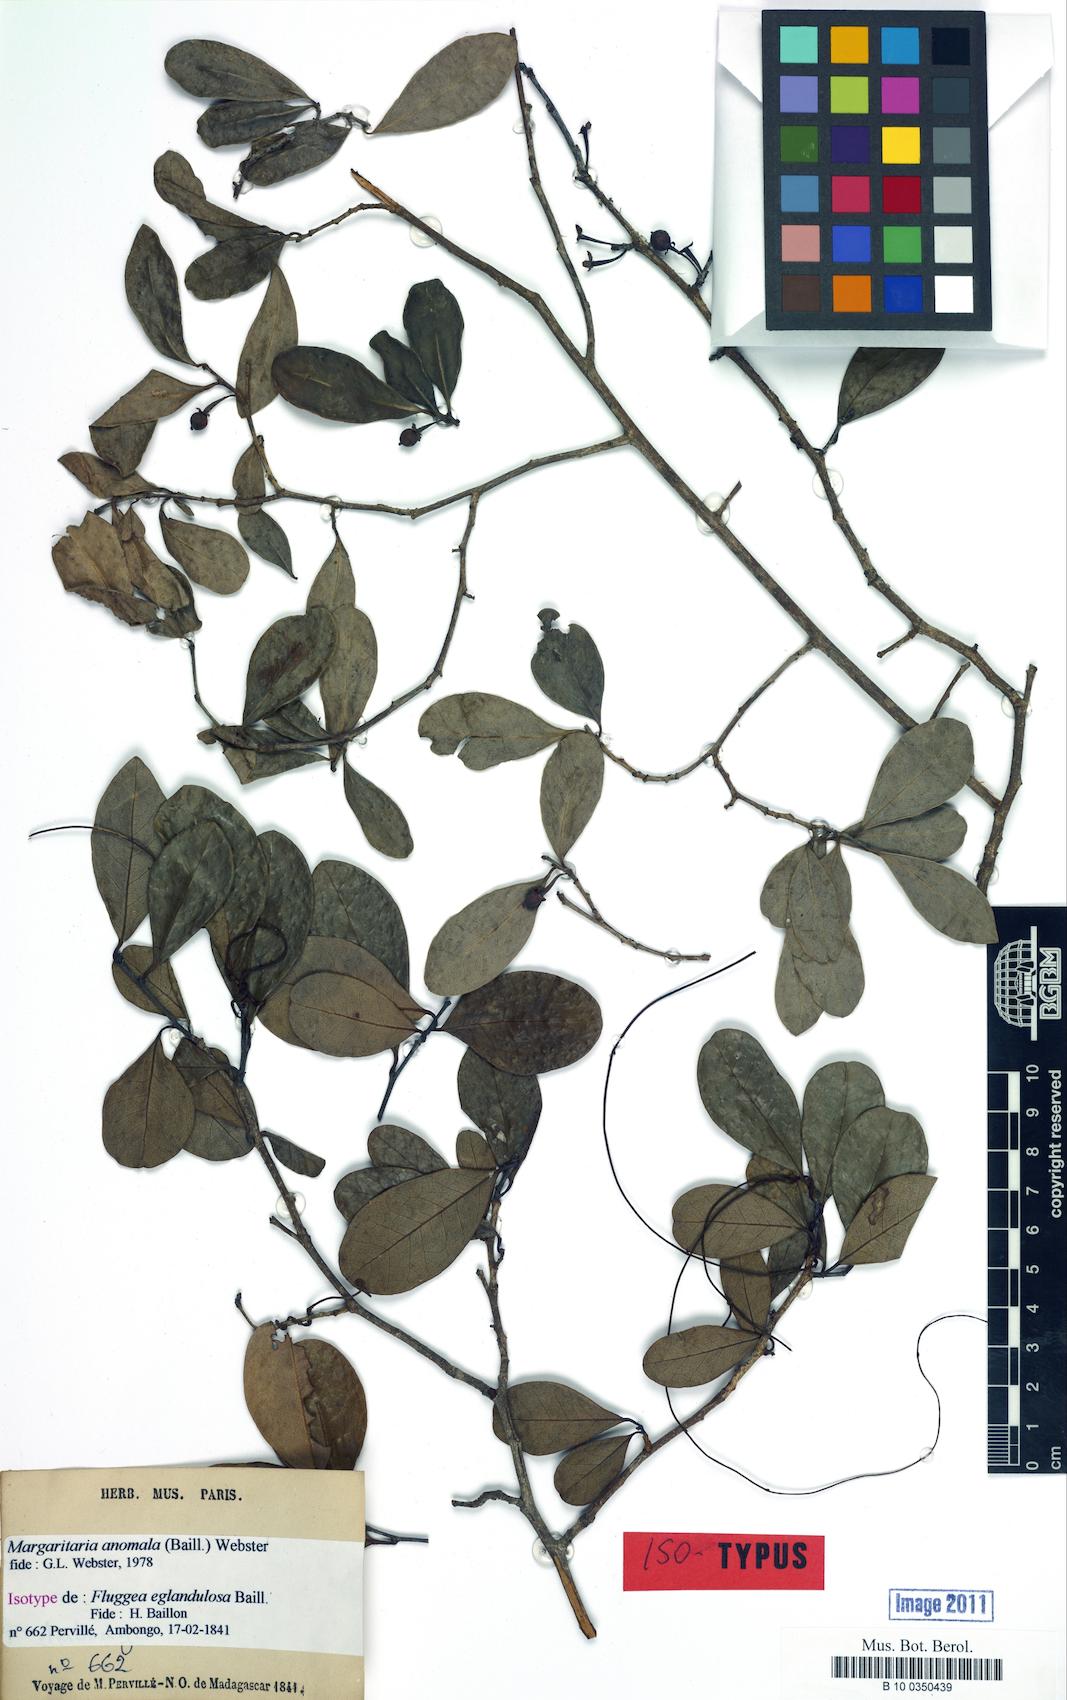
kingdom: Plantae
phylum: Tracheophyta
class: Magnoliopsida
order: Malpighiales
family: Phyllanthaceae
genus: Margaritaria
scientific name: Margaritaria anomala
